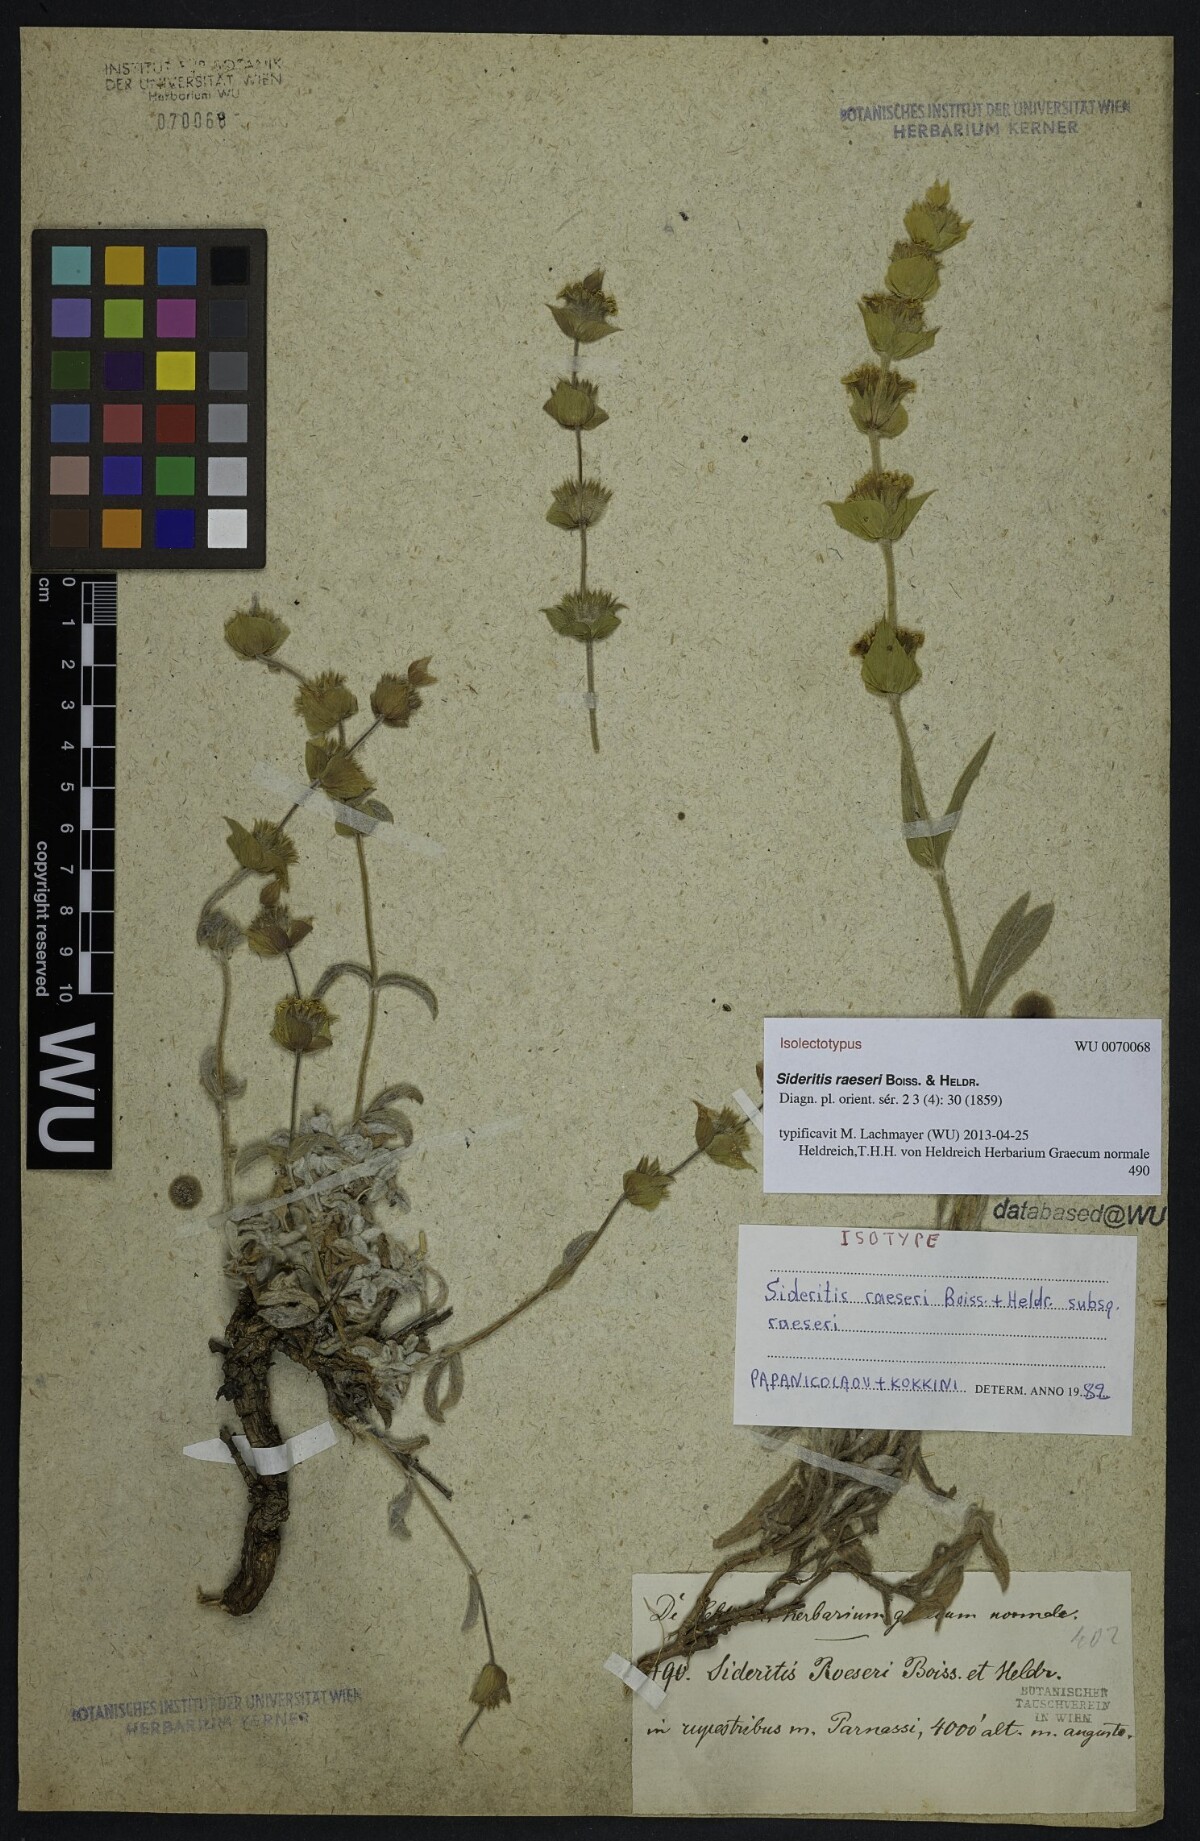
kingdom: Plantae
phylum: Tracheophyta
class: Magnoliopsida
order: Lamiales
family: Lamiaceae
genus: Sideritis
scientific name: Sideritis raeseri
